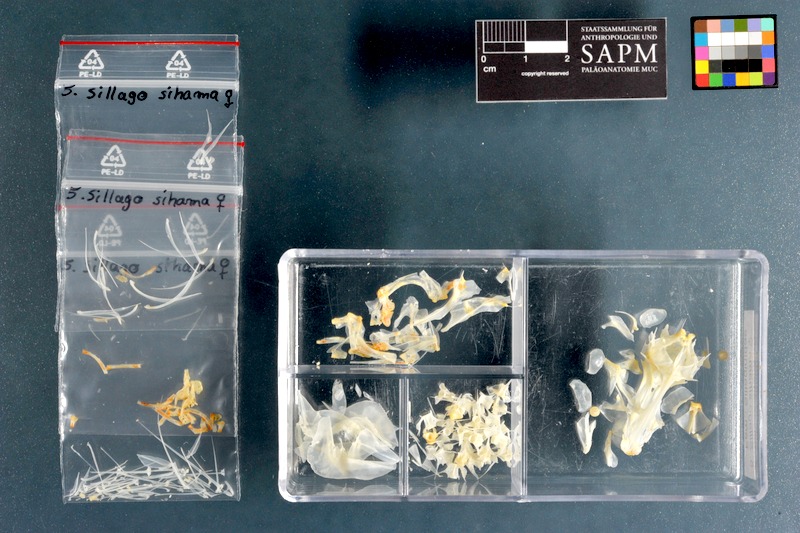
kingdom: Animalia
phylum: Chordata
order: Perciformes
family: Sillaginidae
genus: Sillago
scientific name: Sillago sihama
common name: Silver sillago
